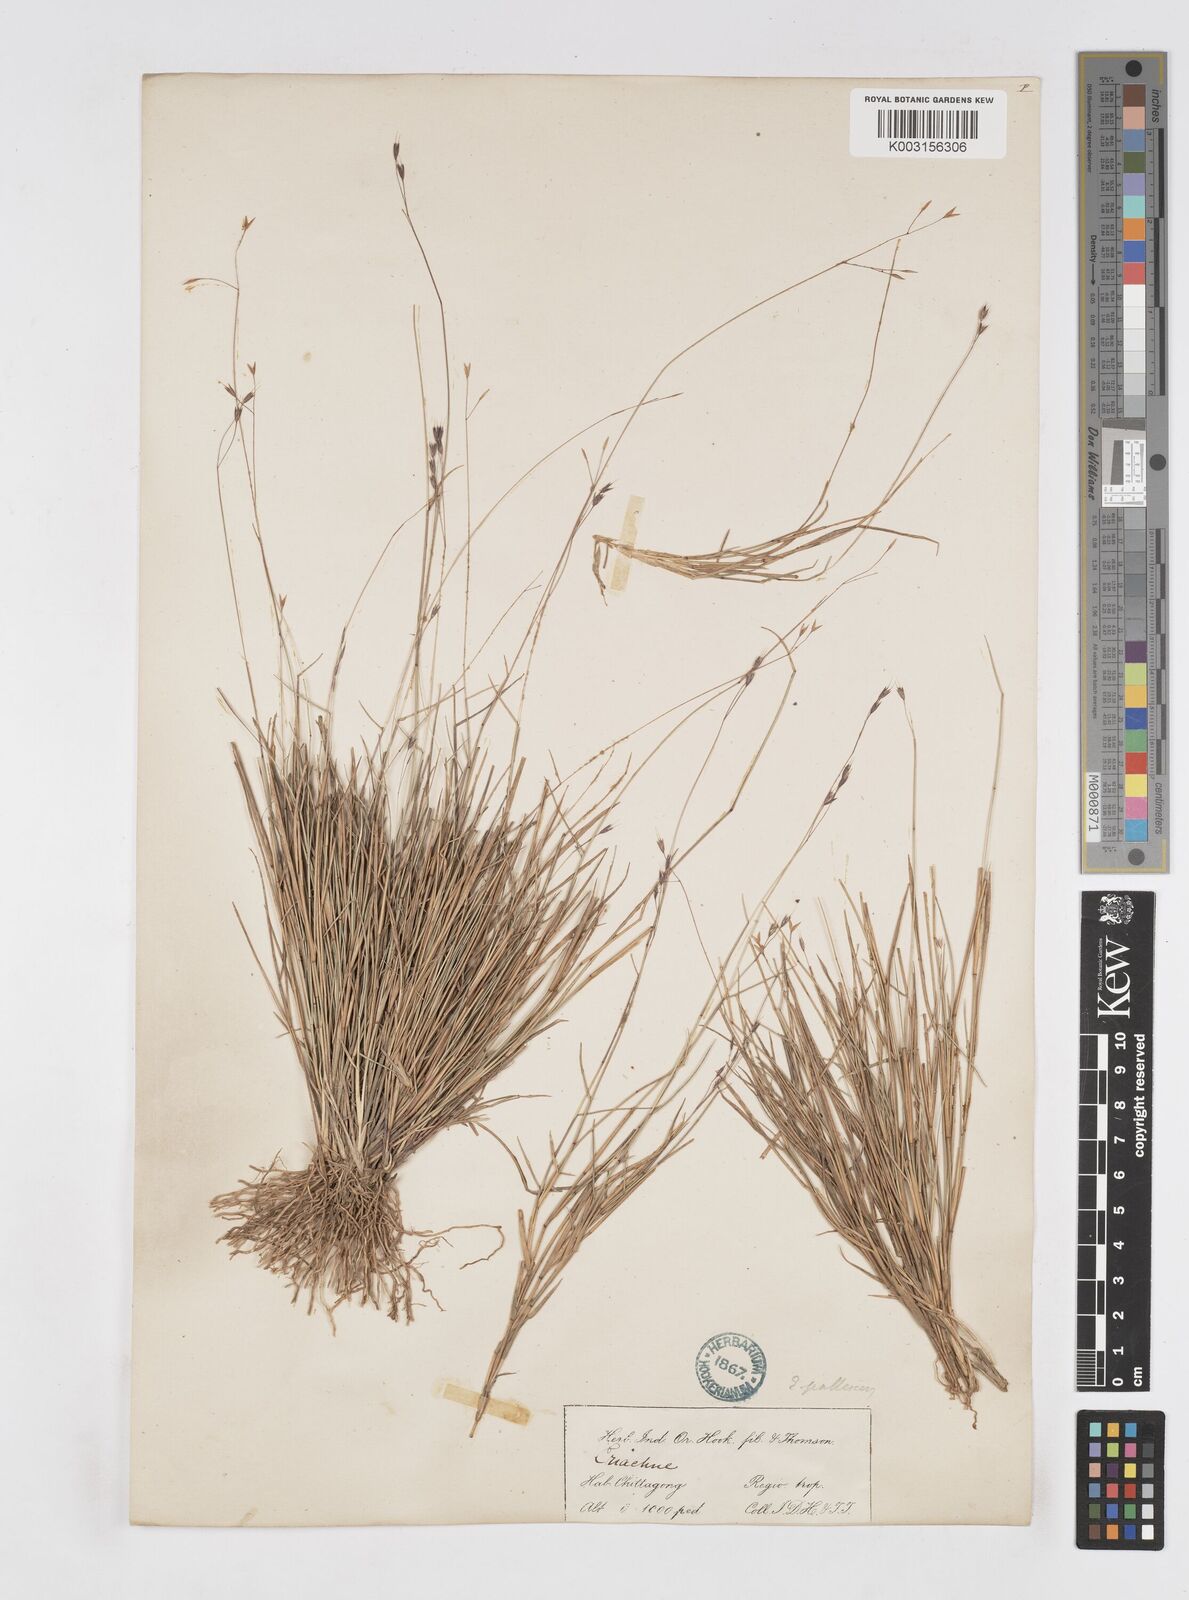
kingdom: Plantae
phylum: Tracheophyta
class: Liliopsida
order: Poales
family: Poaceae
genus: Eriachne
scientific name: Eriachne pallescens
